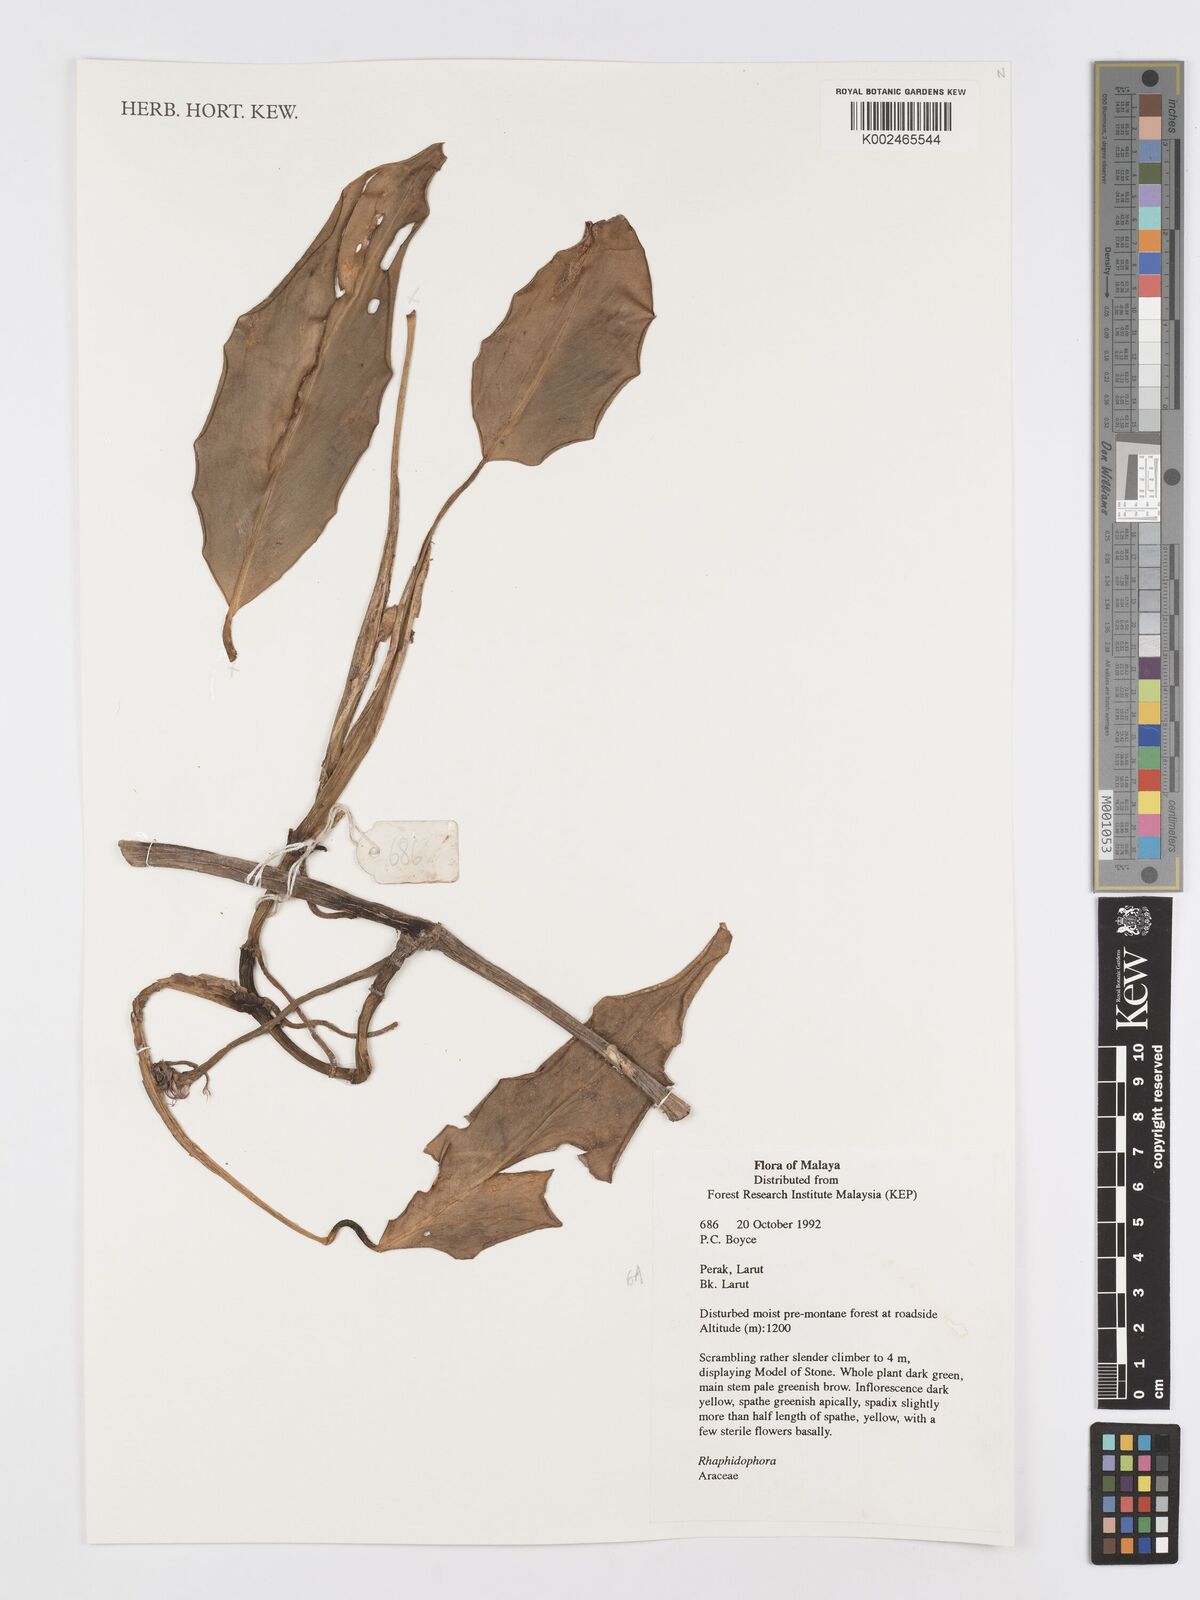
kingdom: Plantae
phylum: Tracheophyta
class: Liliopsida
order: Alismatales
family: Araceae
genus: Rhaphidophora
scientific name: Rhaphidophora
